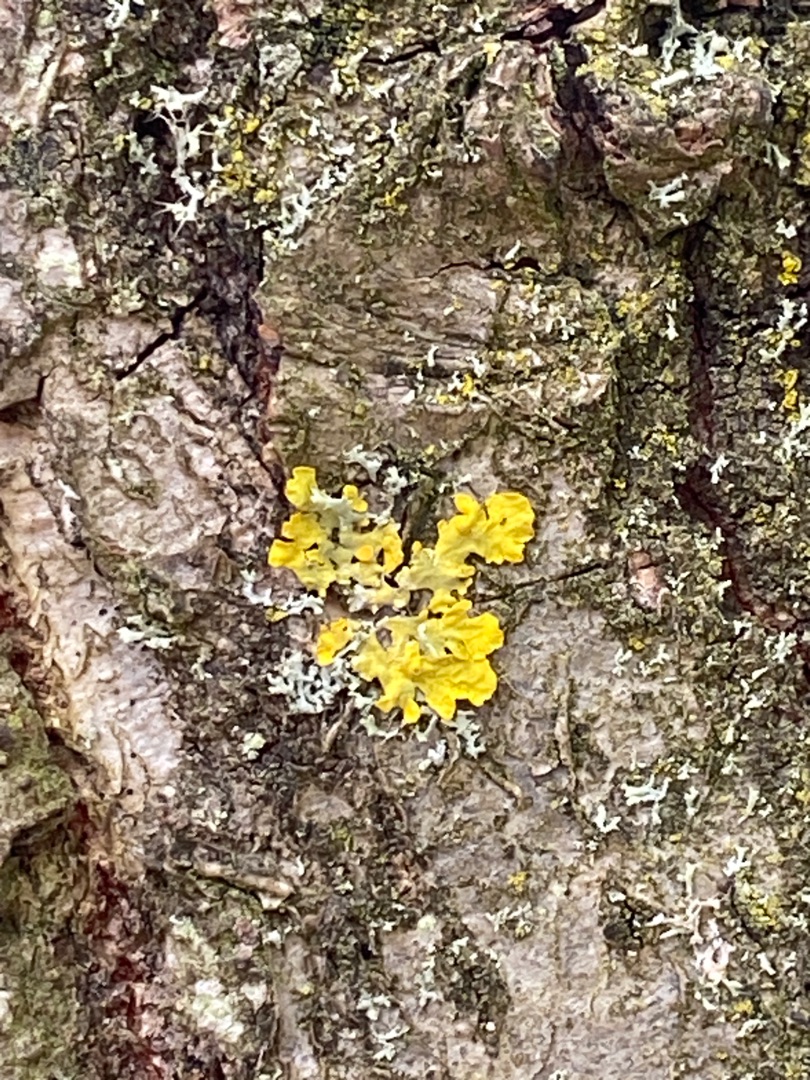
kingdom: Fungi
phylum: Ascomycota
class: Lecanoromycetes
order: Teloschistales
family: Teloschistaceae
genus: Xanthoria
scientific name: Xanthoria parietina
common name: Almindelig væggelav
